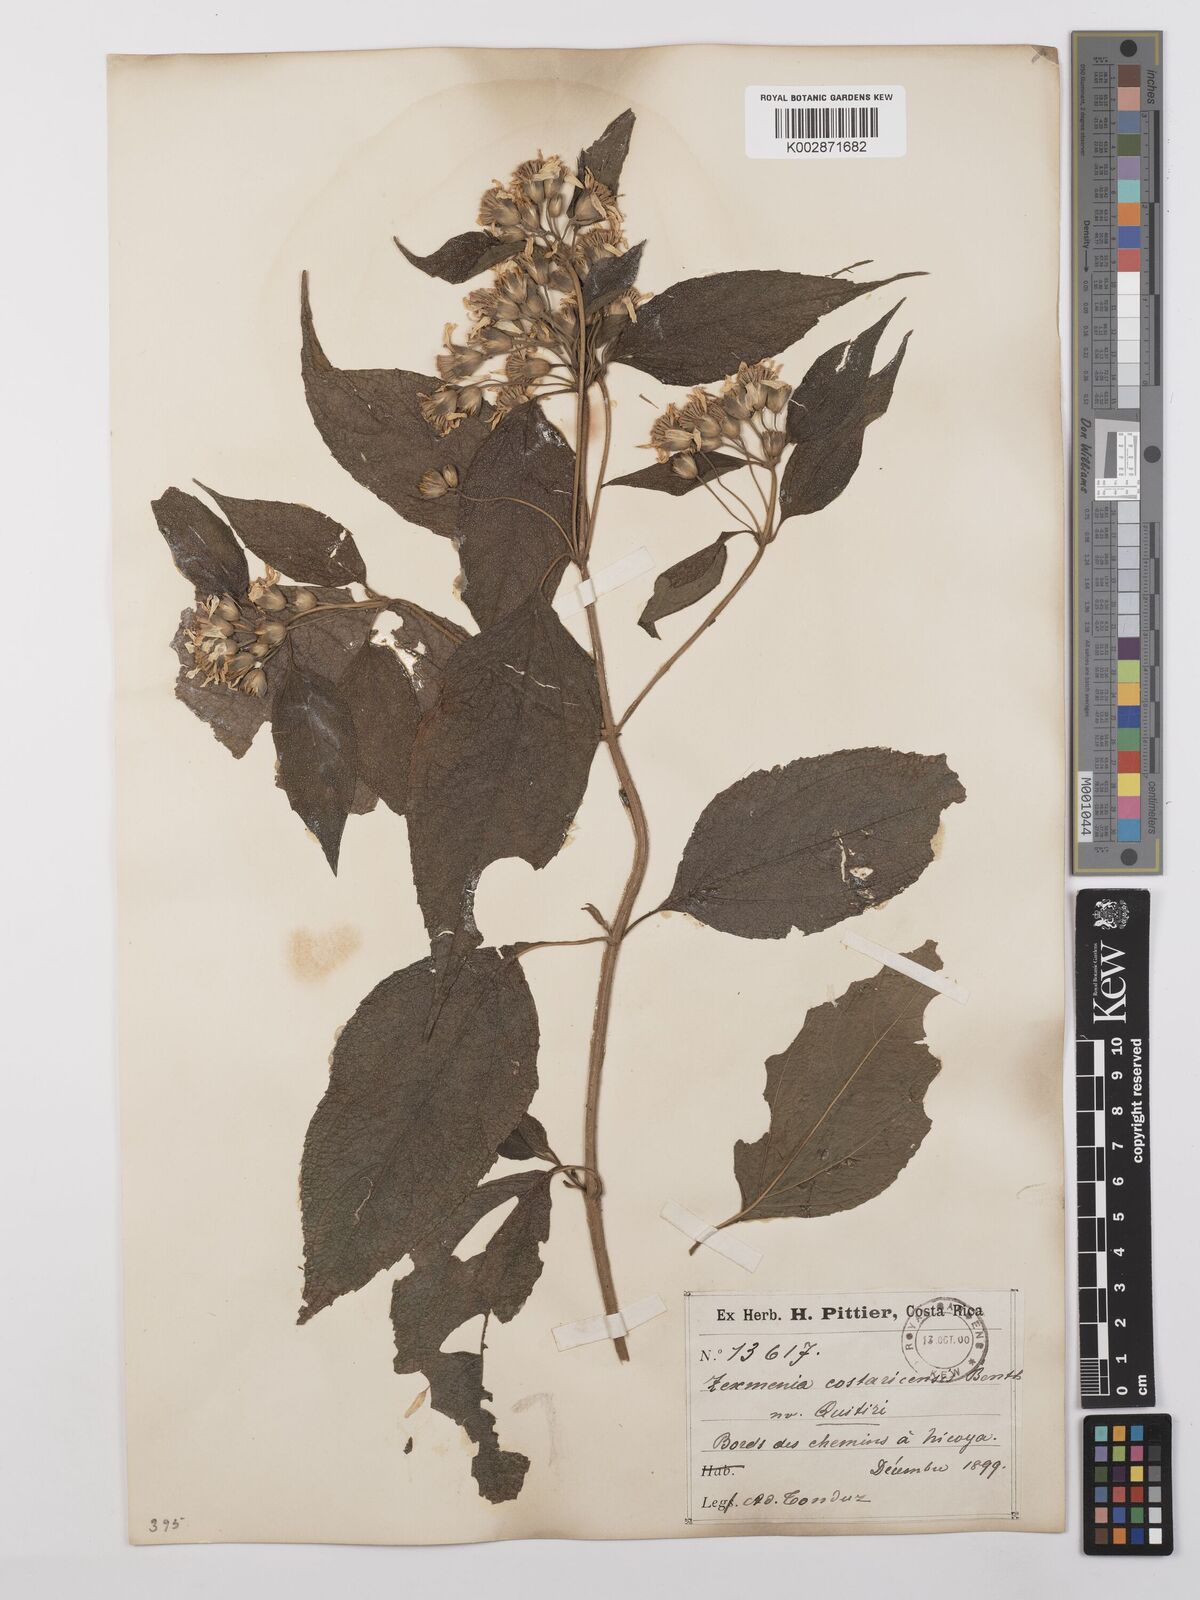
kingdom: Plantae
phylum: Tracheophyta
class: Magnoliopsida
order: Asterales
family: Asteraceae
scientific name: Asteraceae
